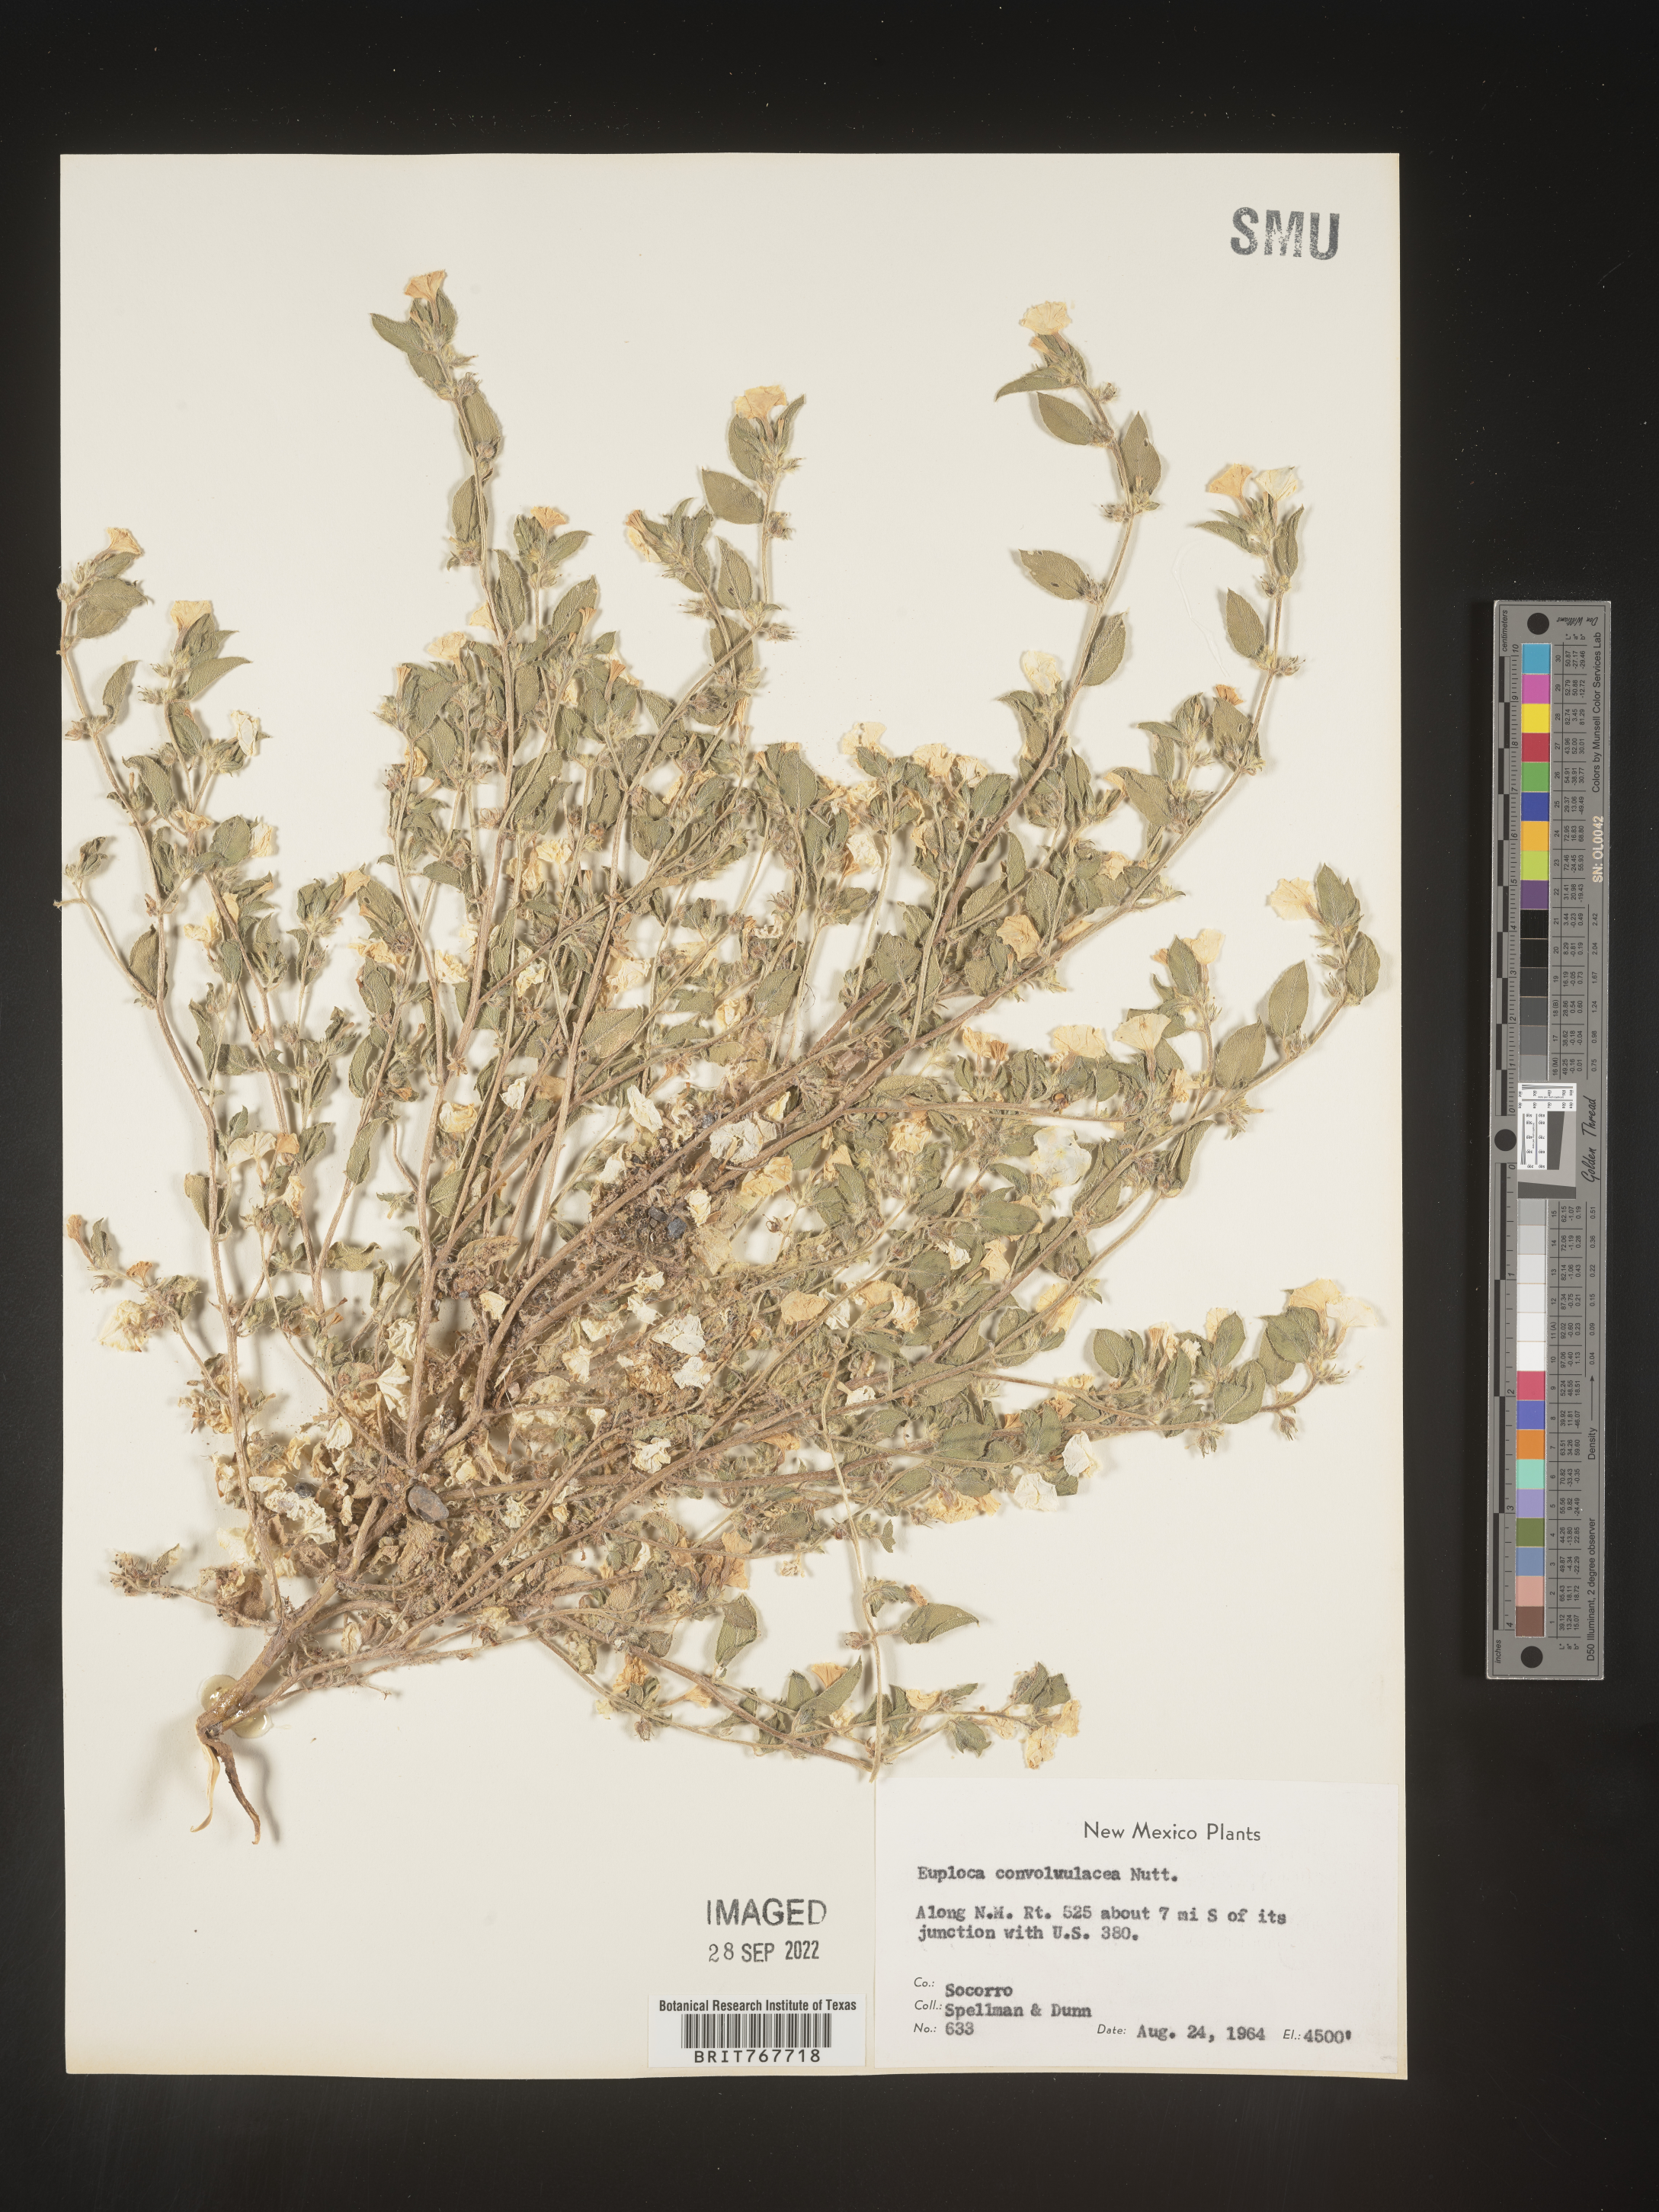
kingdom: Plantae
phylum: Tracheophyta
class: Magnoliopsida
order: Boraginales
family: Heliotropiaceae
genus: Heliotropium
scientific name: Heliotropium
